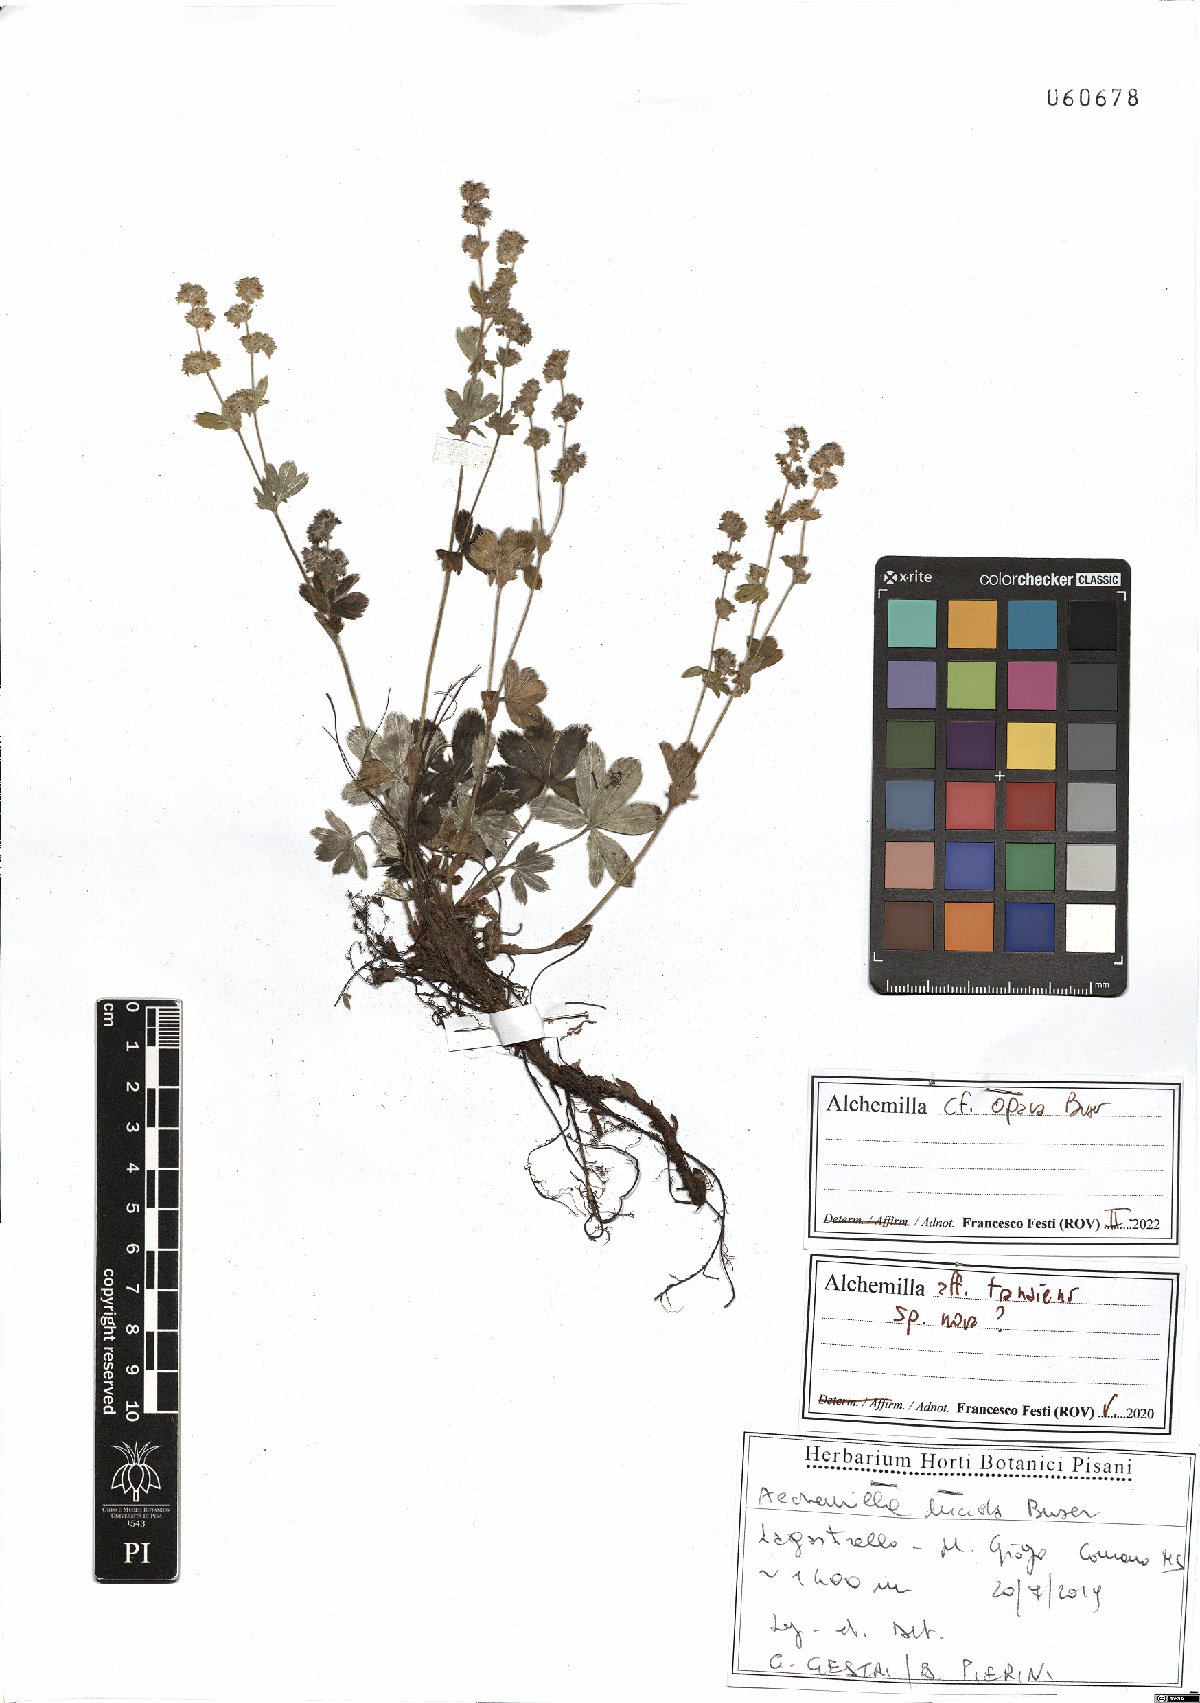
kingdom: Plantae
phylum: Tracheophyta
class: Magnoliopsida
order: Rosales
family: Rosaceae
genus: Alchemilla
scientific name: Alchemilla opaca
